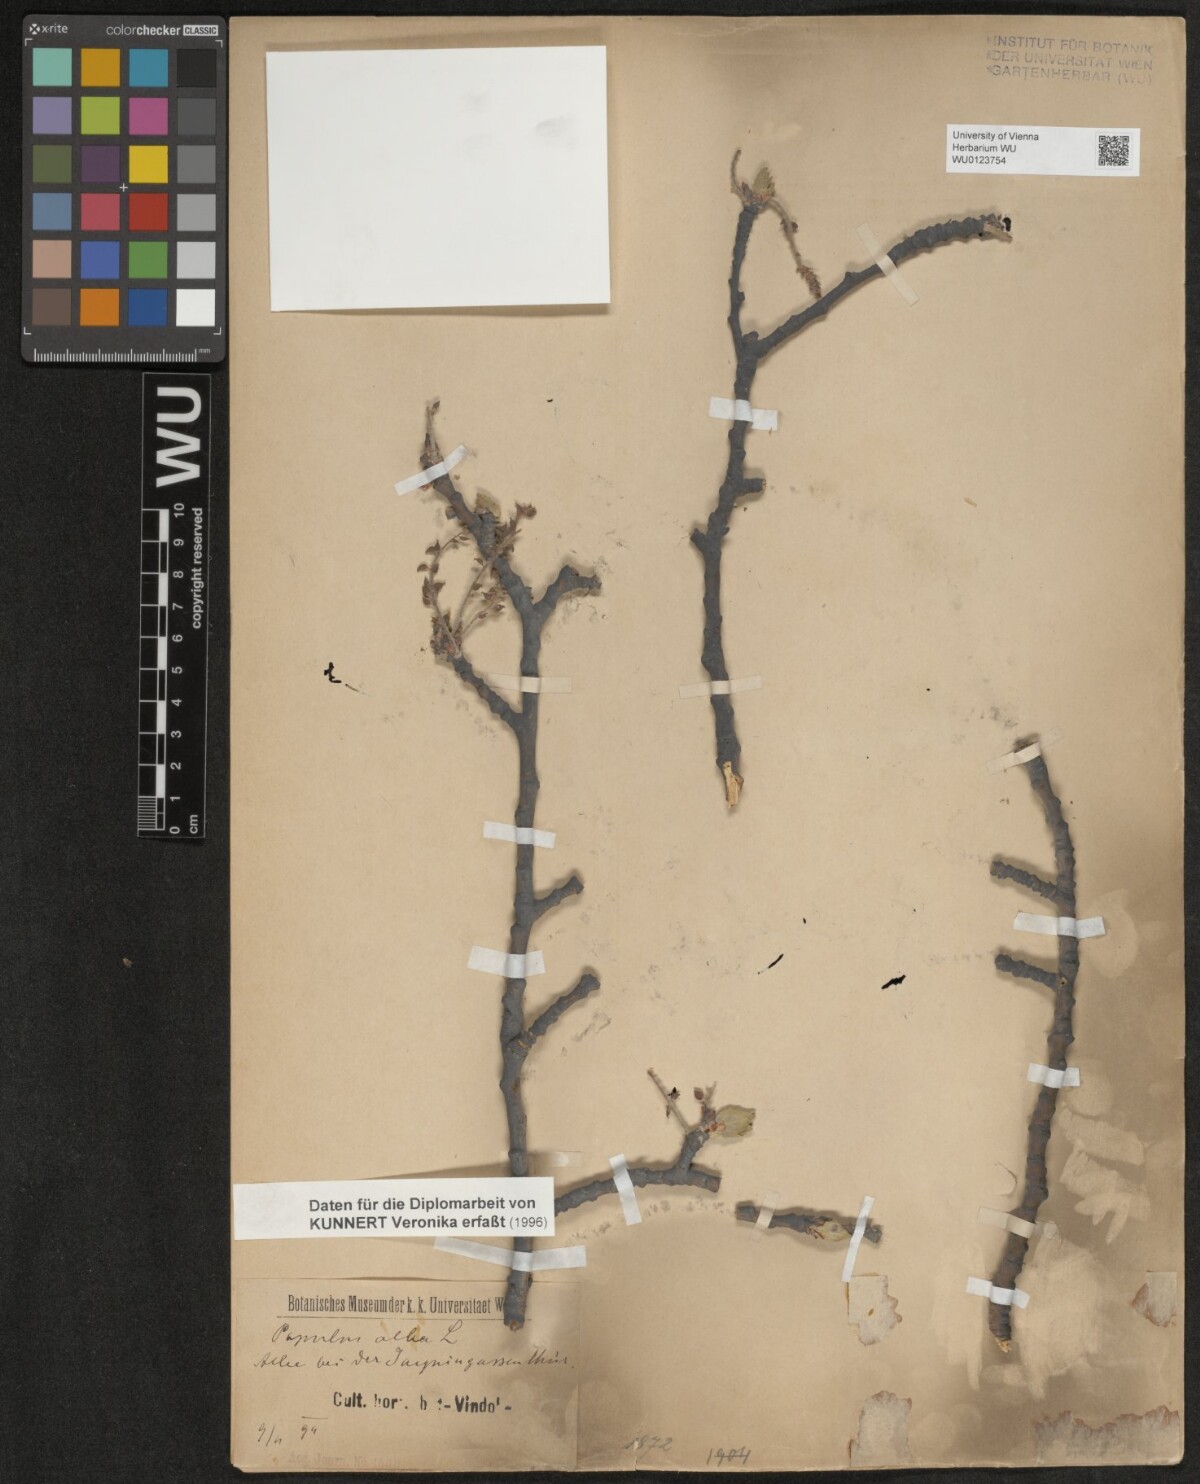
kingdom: Plantae
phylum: Tracheophyta
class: Magnoliopsida
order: Malpighiales
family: Salicaceae
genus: Populus
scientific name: Populus alba
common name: White poplar
